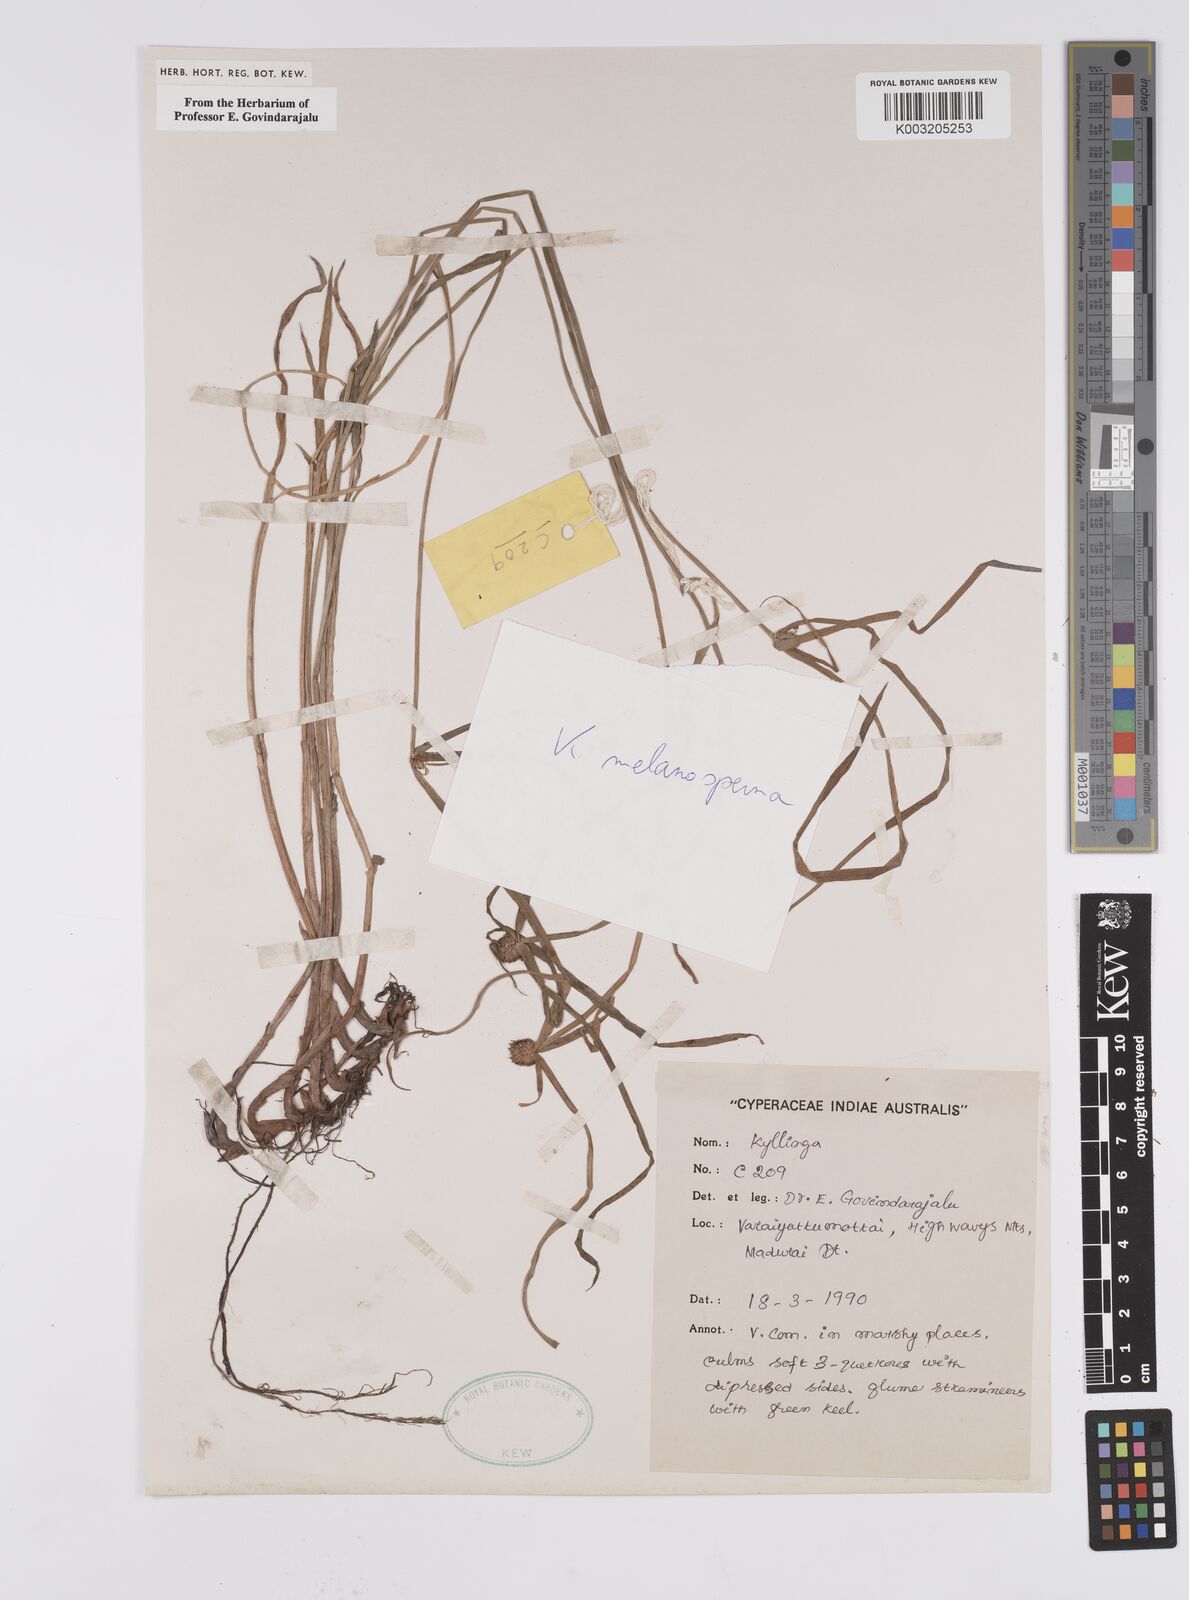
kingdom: Plantae
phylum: Tracheophyta
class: Liliopsida
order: Poales
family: Cyperaceae
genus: Cyperus
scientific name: Cyperus melanospermus
